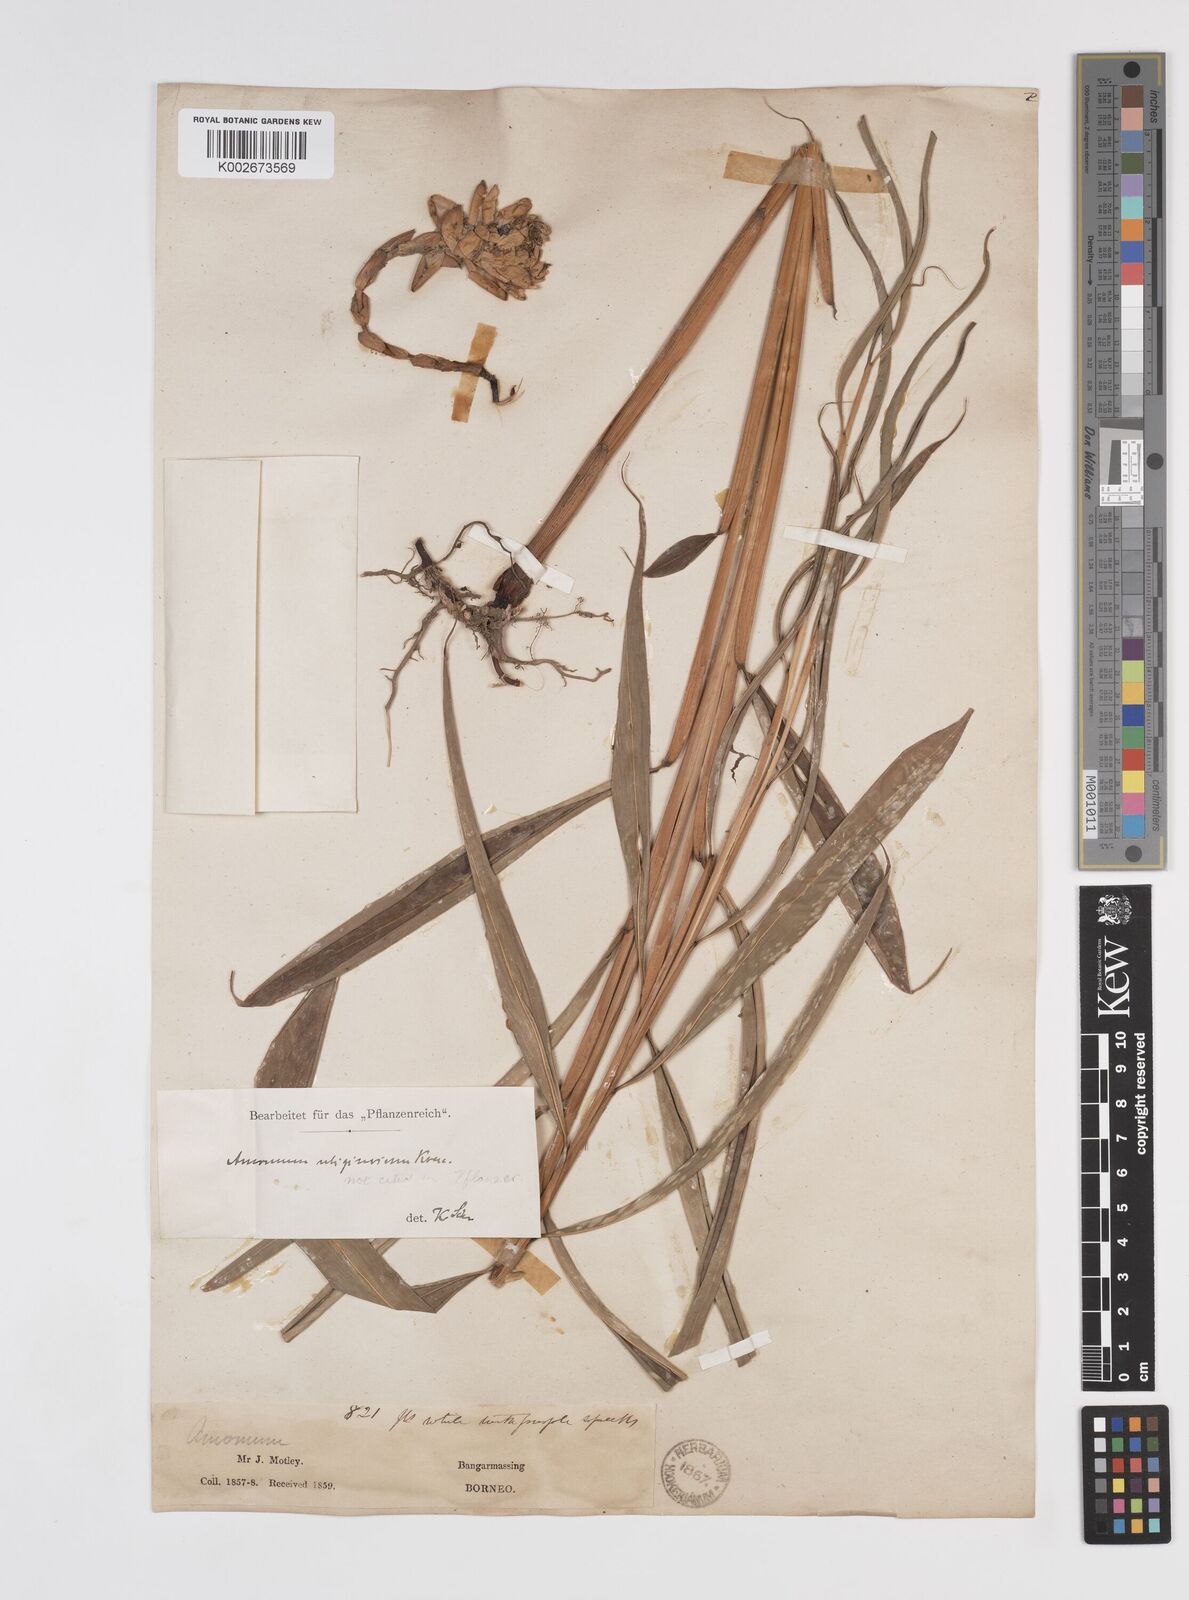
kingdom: Plantae
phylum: Tracheophyta
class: Liliopsida
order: Zingiberales
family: Zingiberaceae
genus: Amomum
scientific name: Amomum
